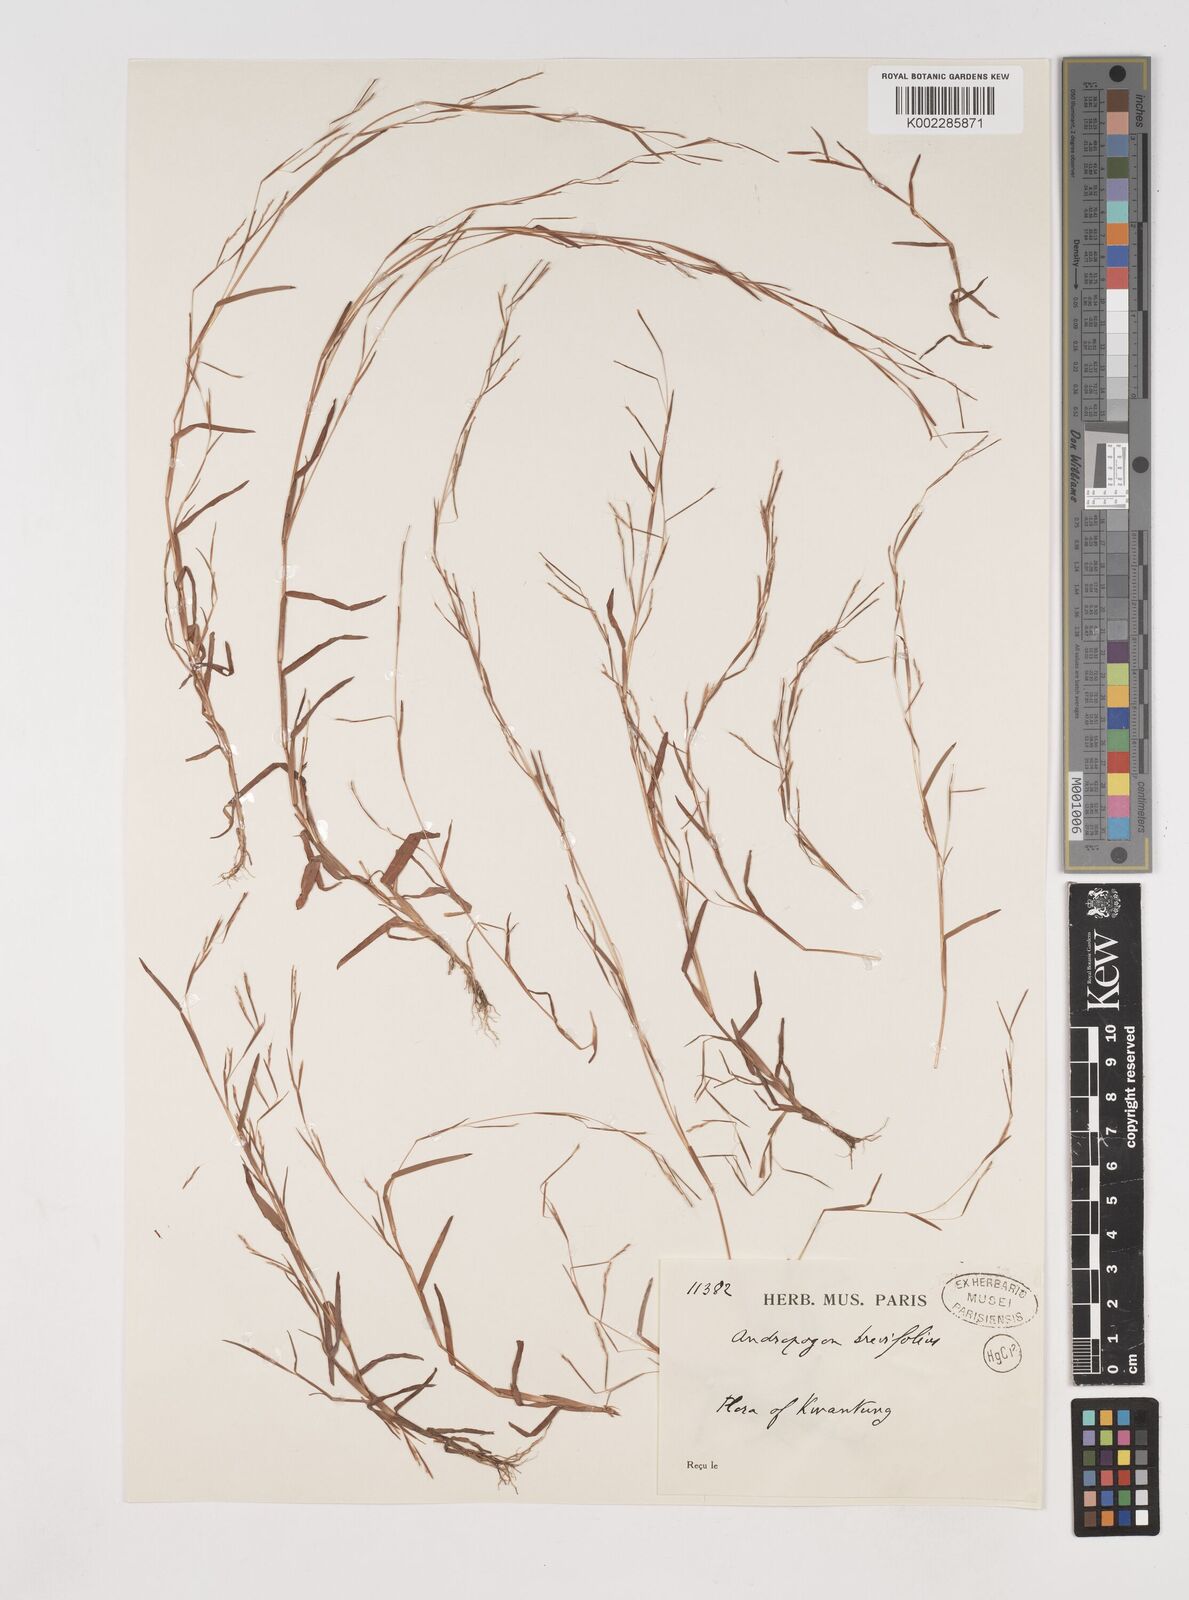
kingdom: Plantae
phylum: Tracheophyta
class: Liliopsida
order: Poales
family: Poaceae
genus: Schizachyrium
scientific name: Schizachyrium brevifolium
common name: Serillo dulce
